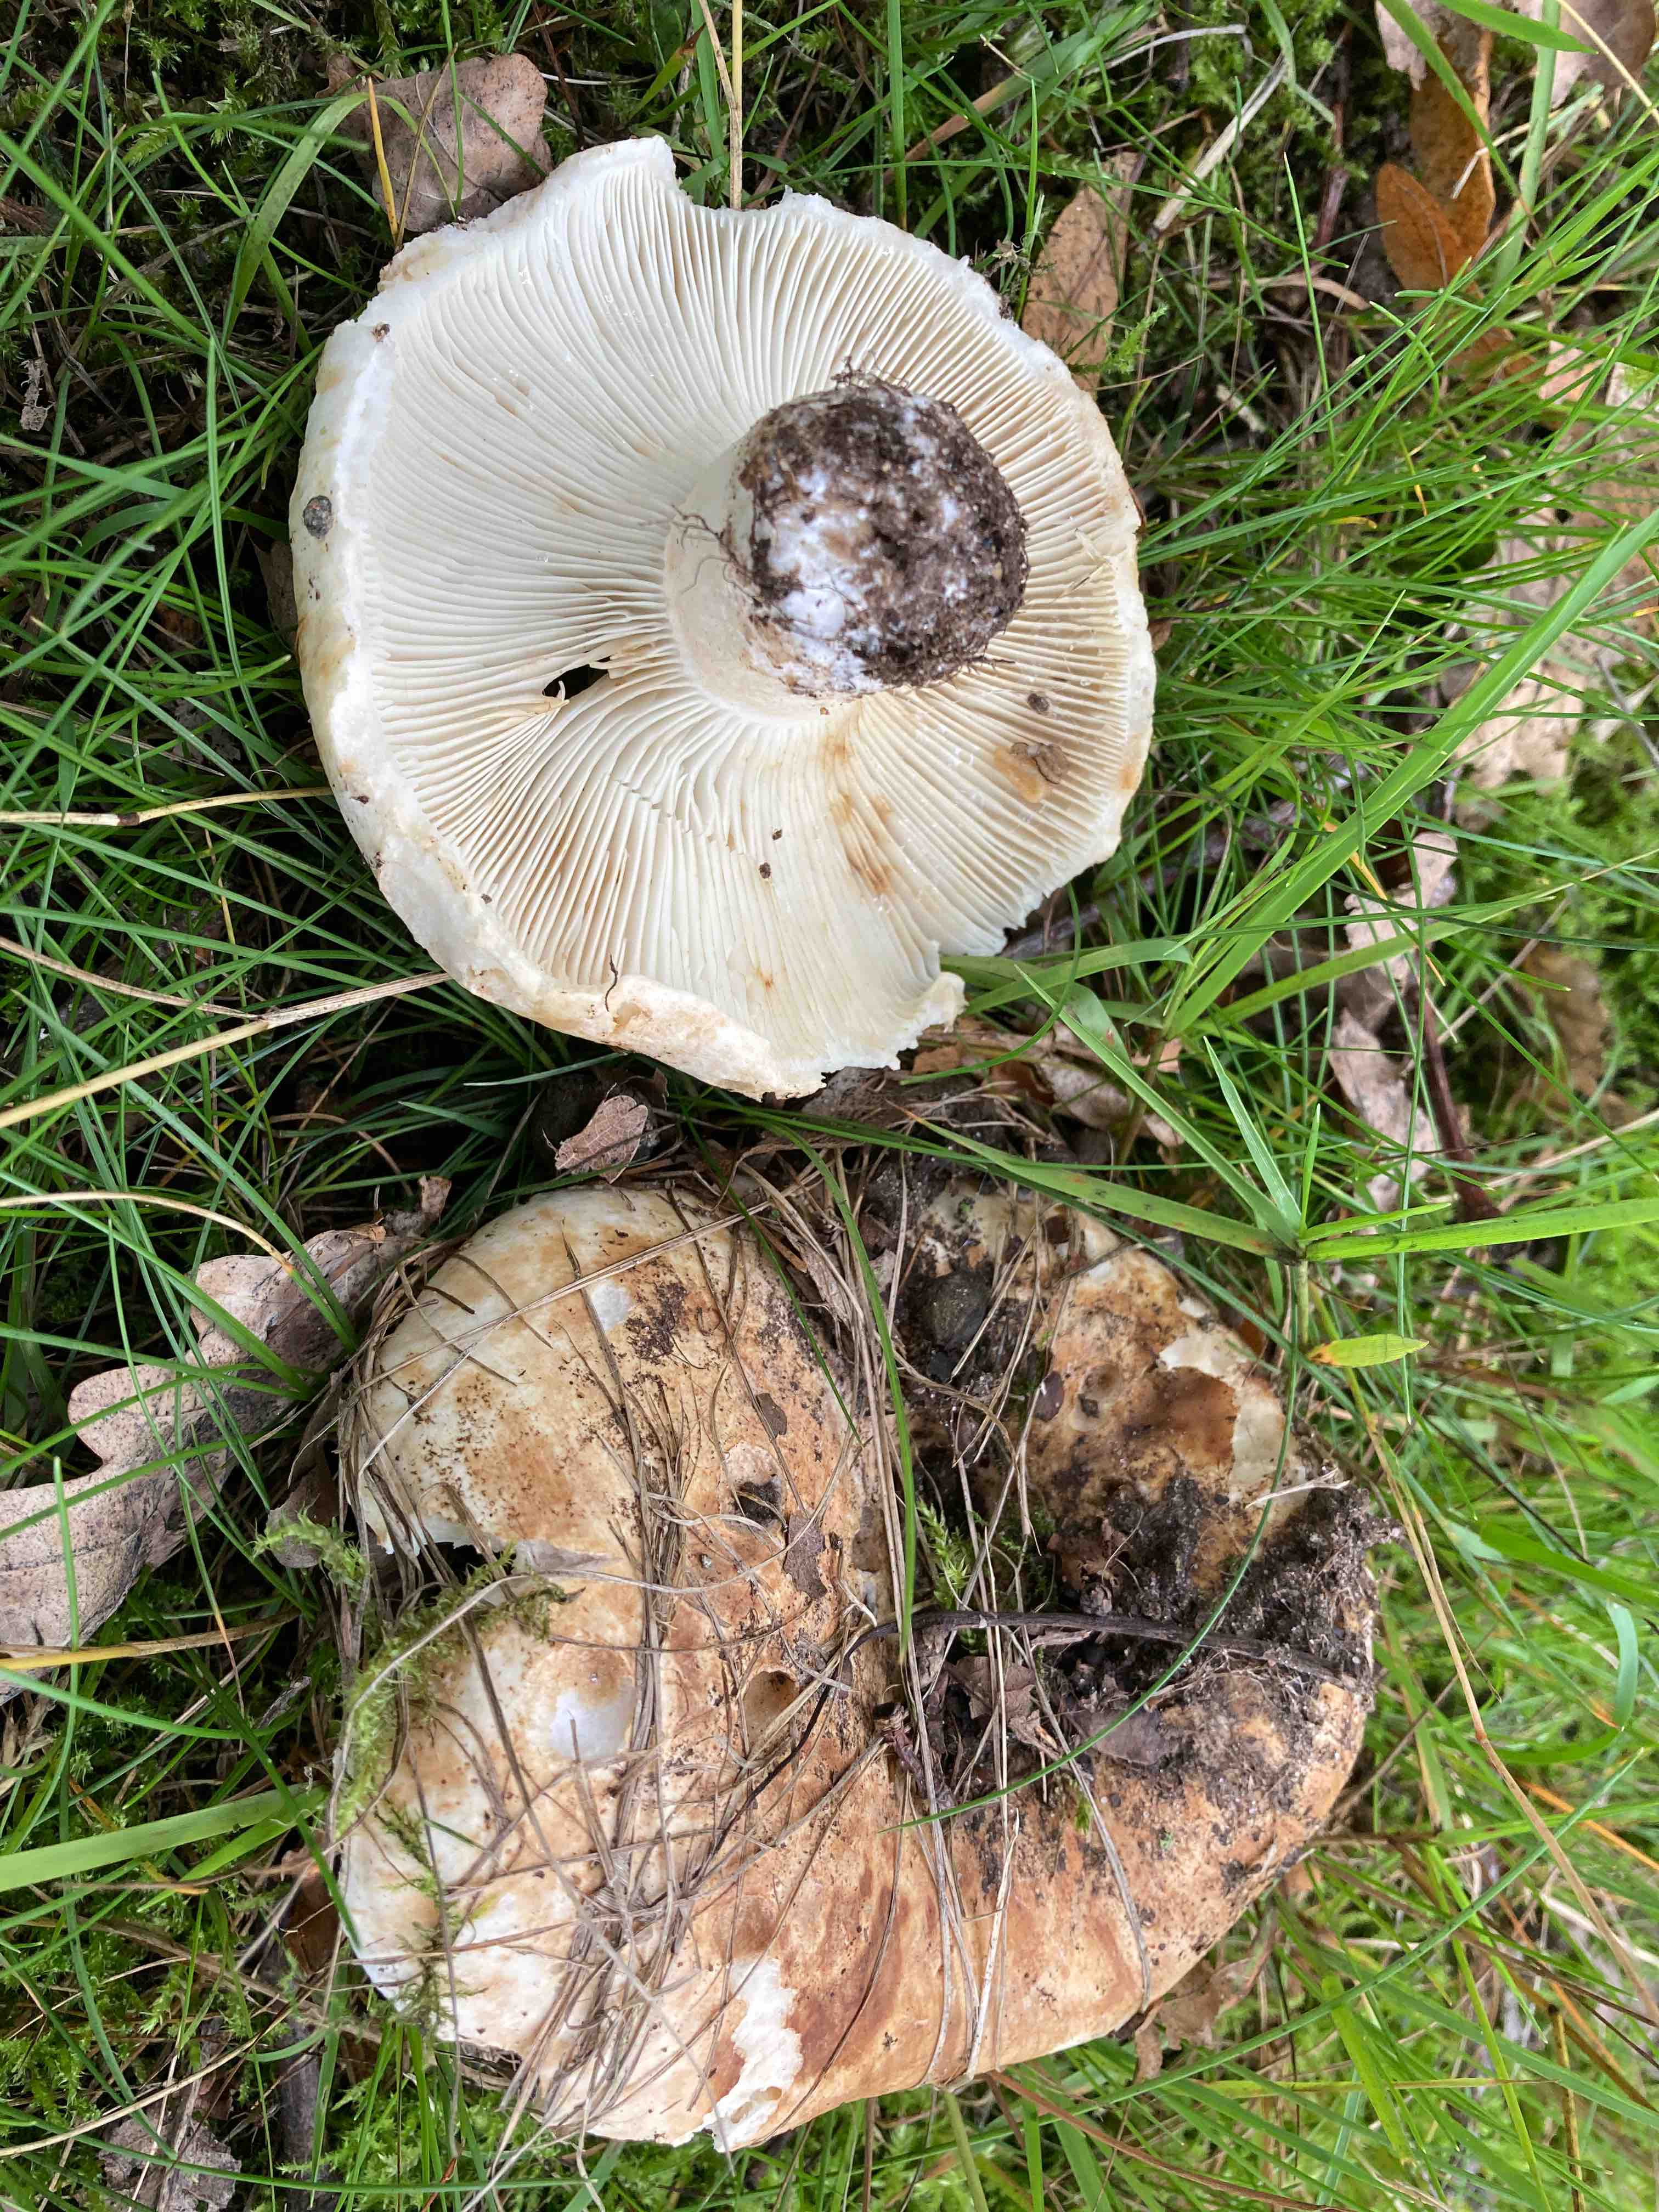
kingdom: Fungi
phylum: Basidiomycota
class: Agaricomycetes
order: Russulales
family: Russulaceae
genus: Russula
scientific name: Russula delica
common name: almindelig tragt-skørhat
